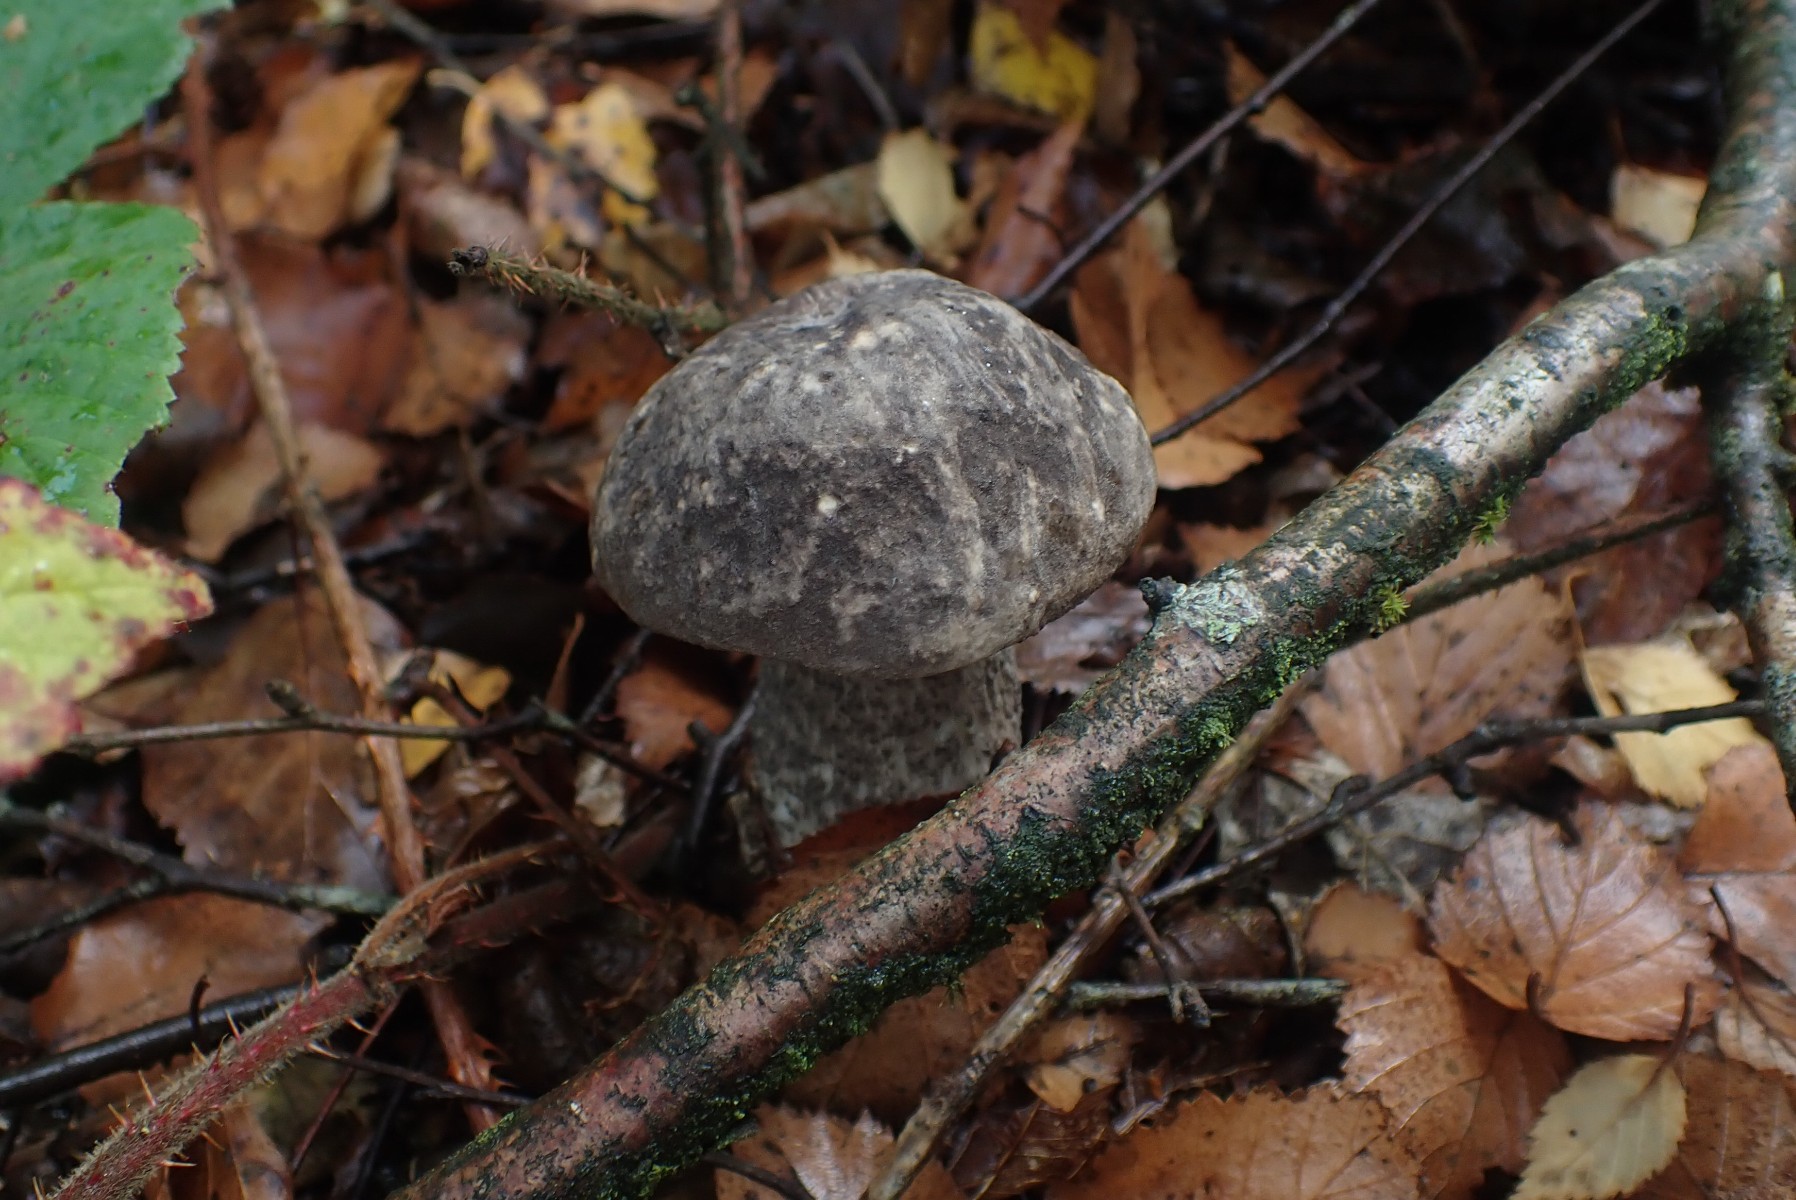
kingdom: Fungi
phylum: Basidiomycota
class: Agaricomycetes
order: Boletales
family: Boletaceae
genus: Leccinum
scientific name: Leccinum variicolor
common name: flammet skælrørhat
